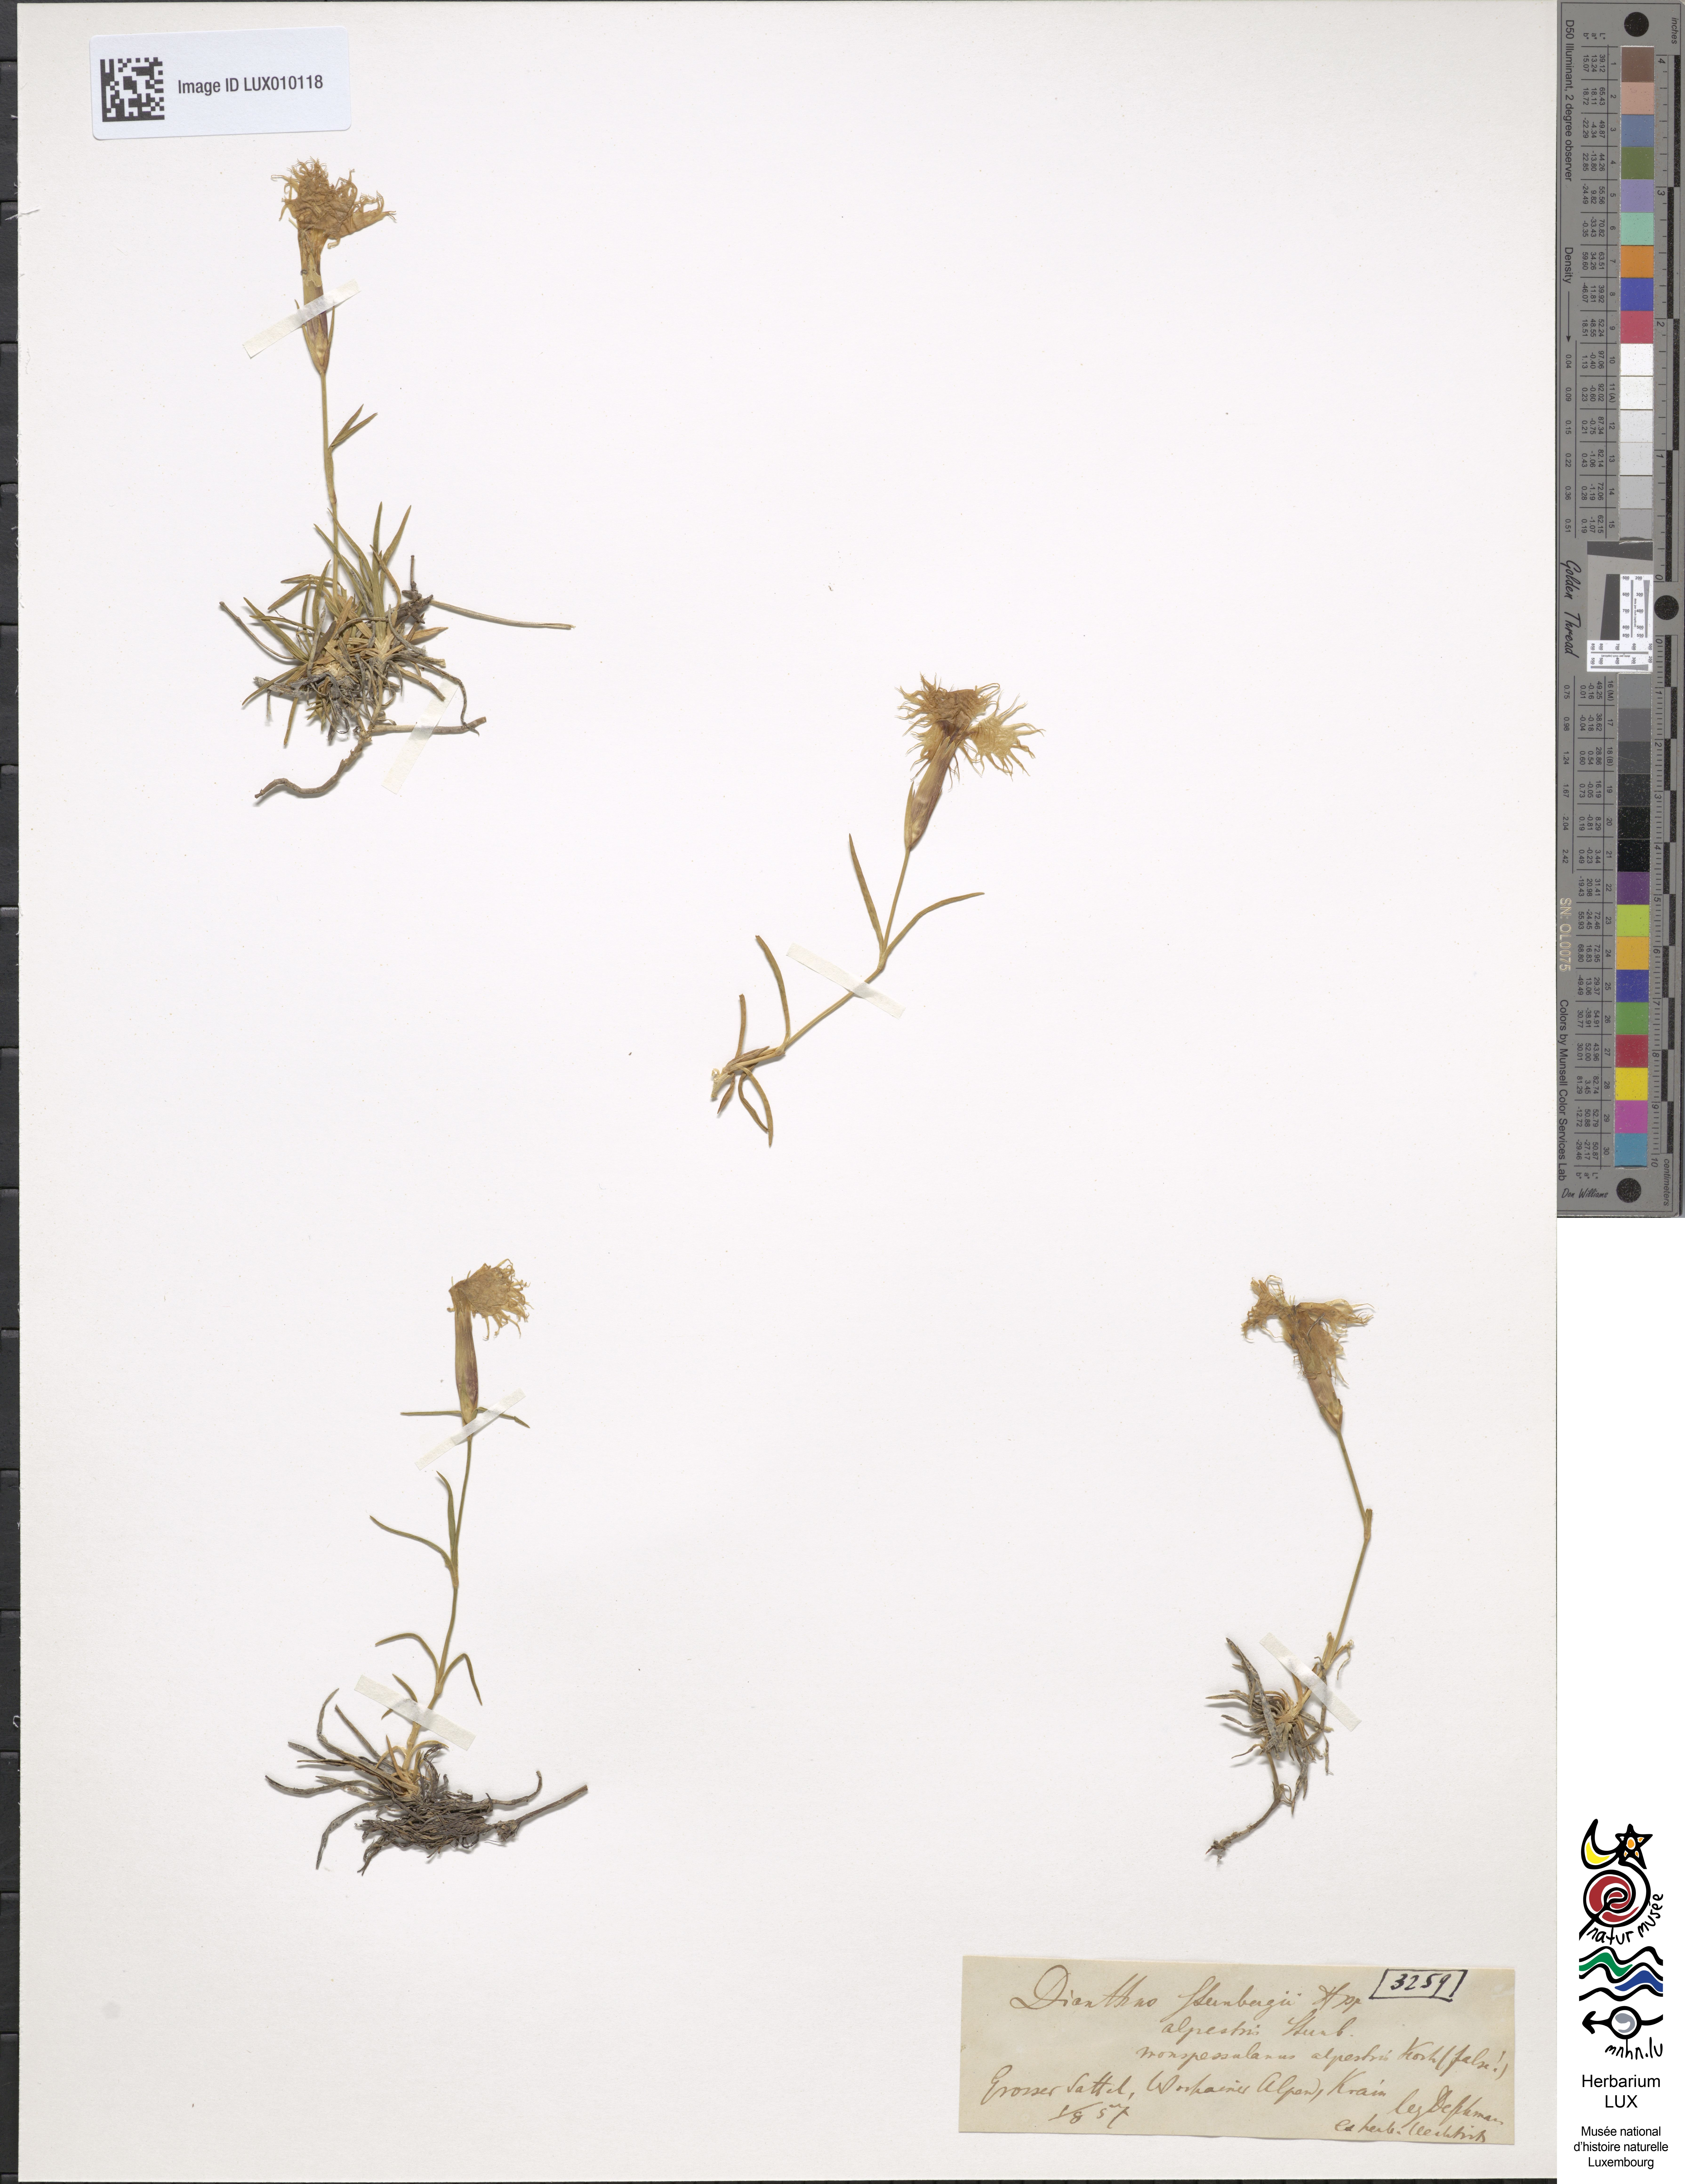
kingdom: Plantae
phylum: Tracheophyta
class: Magnoliopsida
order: Caryophyllales
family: Caryophyllaceae
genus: Dianthus
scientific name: Dianthus sternbergii
